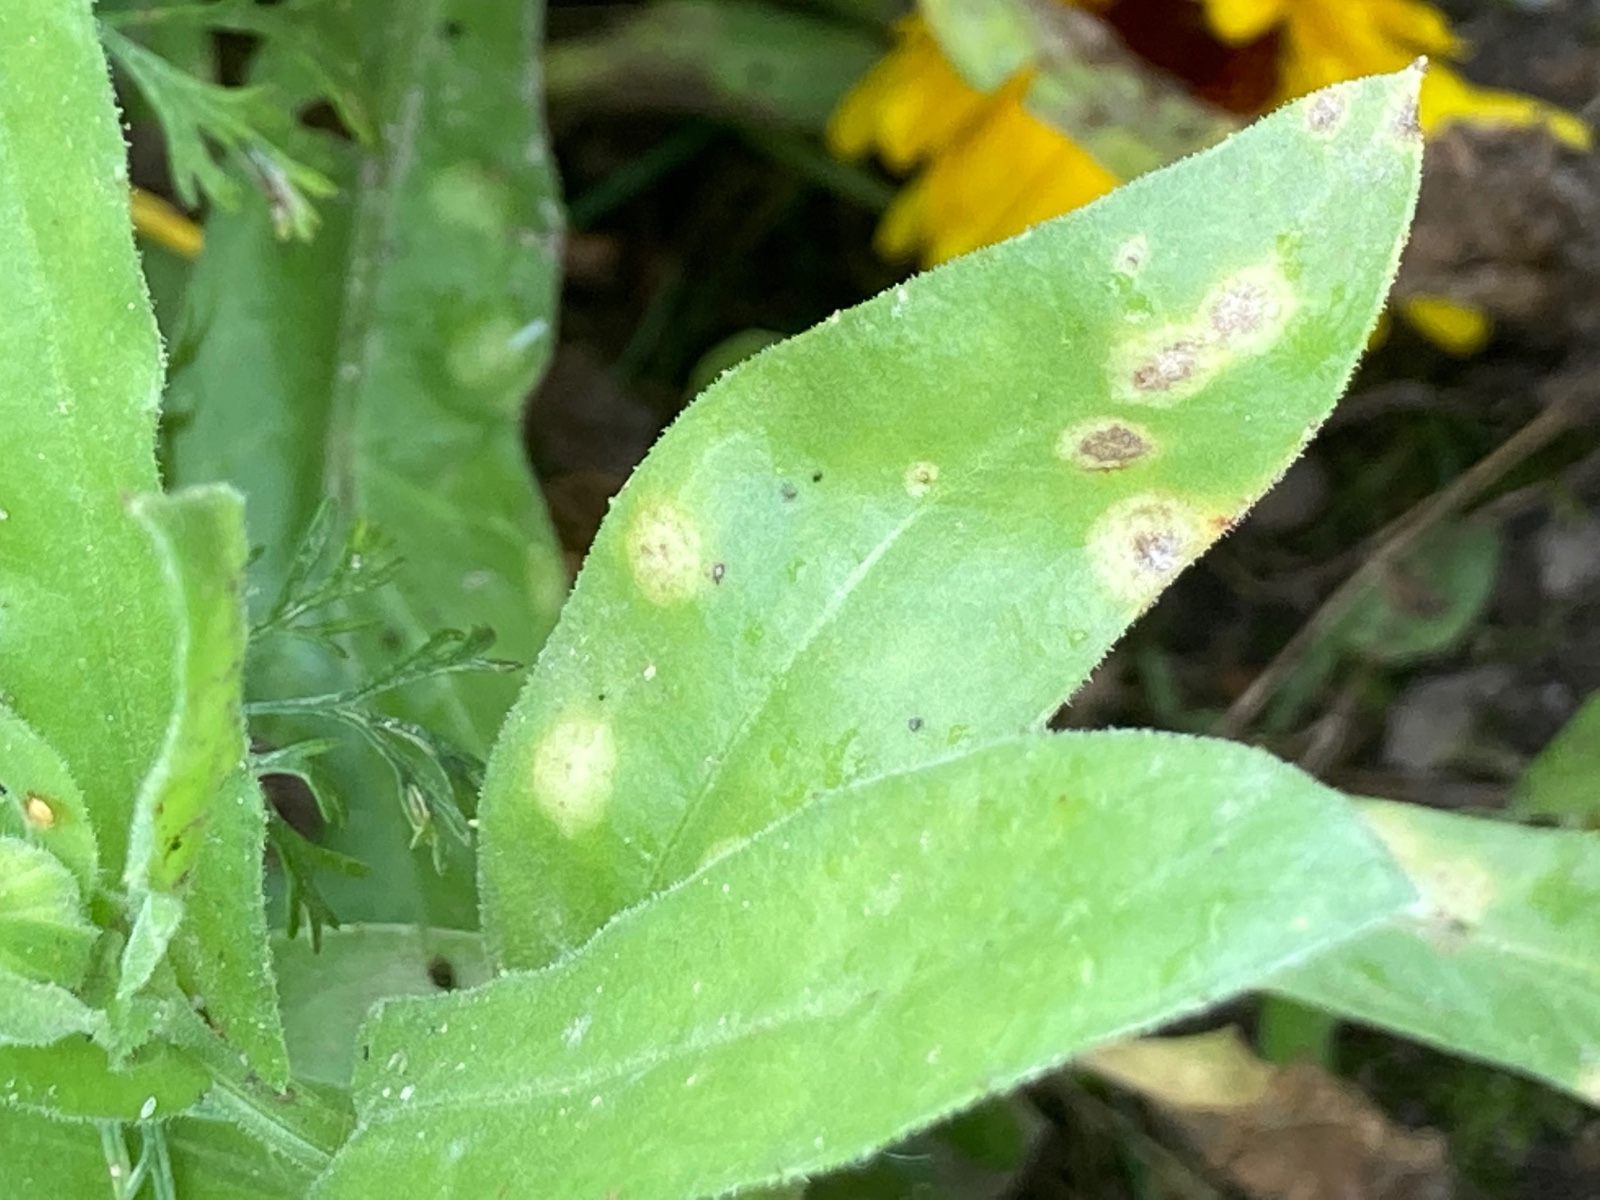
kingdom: Fungi
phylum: Basidiomycota
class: Exobasidiomycetes
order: Entylomatales
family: Entylomataceae
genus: Entyloma
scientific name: Entyloma calendulae
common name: Calendula smut
